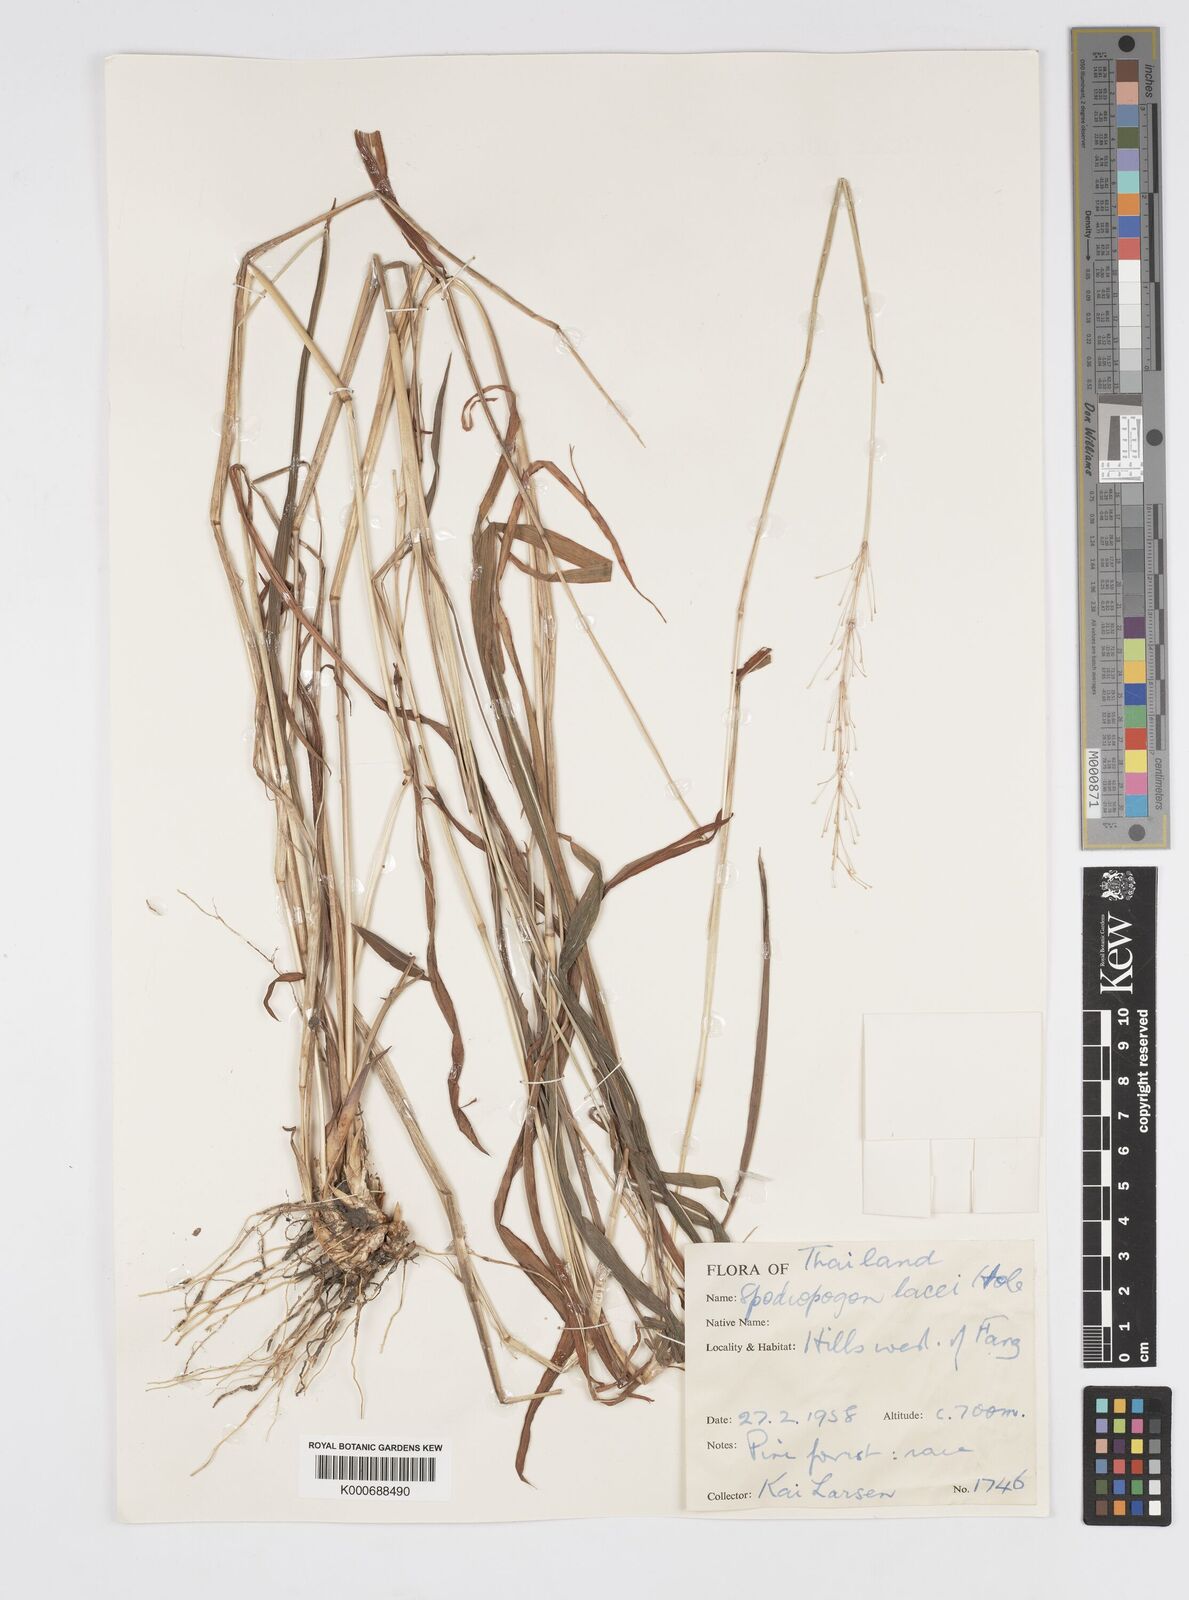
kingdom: Plantae
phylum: Tracheophyta
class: Liliopsida
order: Poales
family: Poaceae
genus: Spodiopogon
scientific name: Spodiopogon lacei
